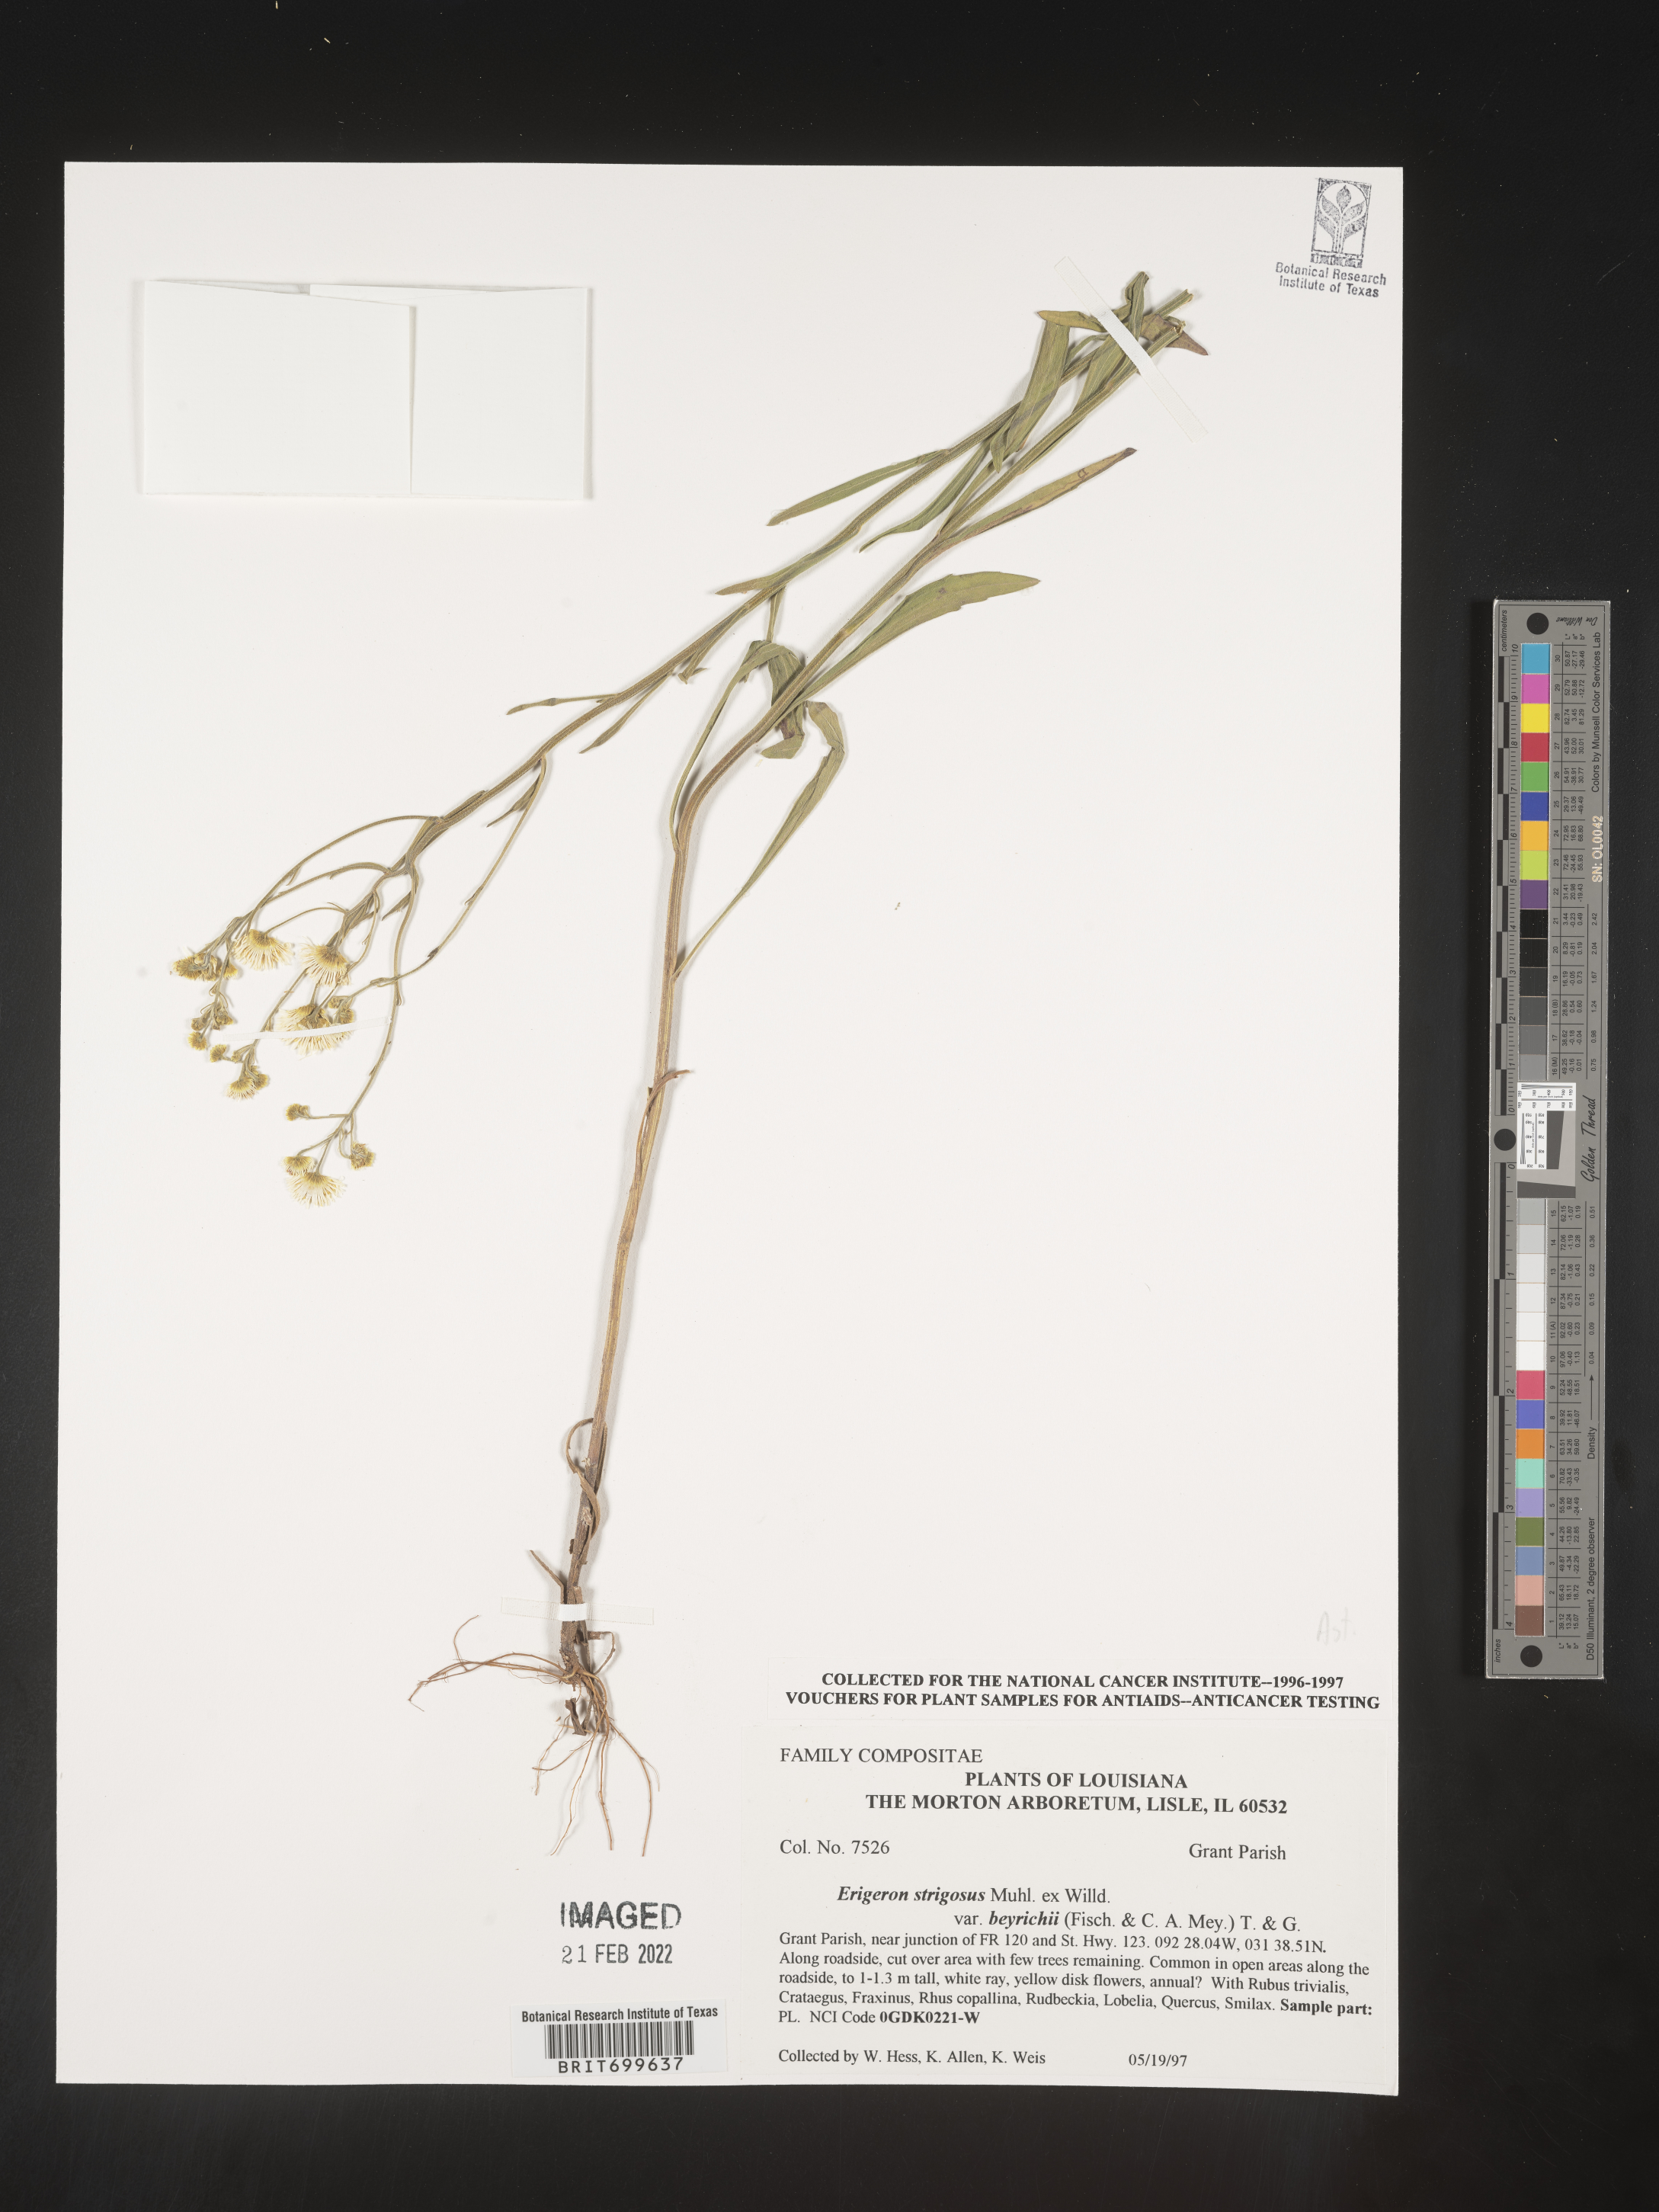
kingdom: Plantae
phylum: Tracheophyta
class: Magnoliopsida
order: Asterales
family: Asteraceae
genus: Erigeron
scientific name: Erigeron strigosus
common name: Common eastern fleabane
